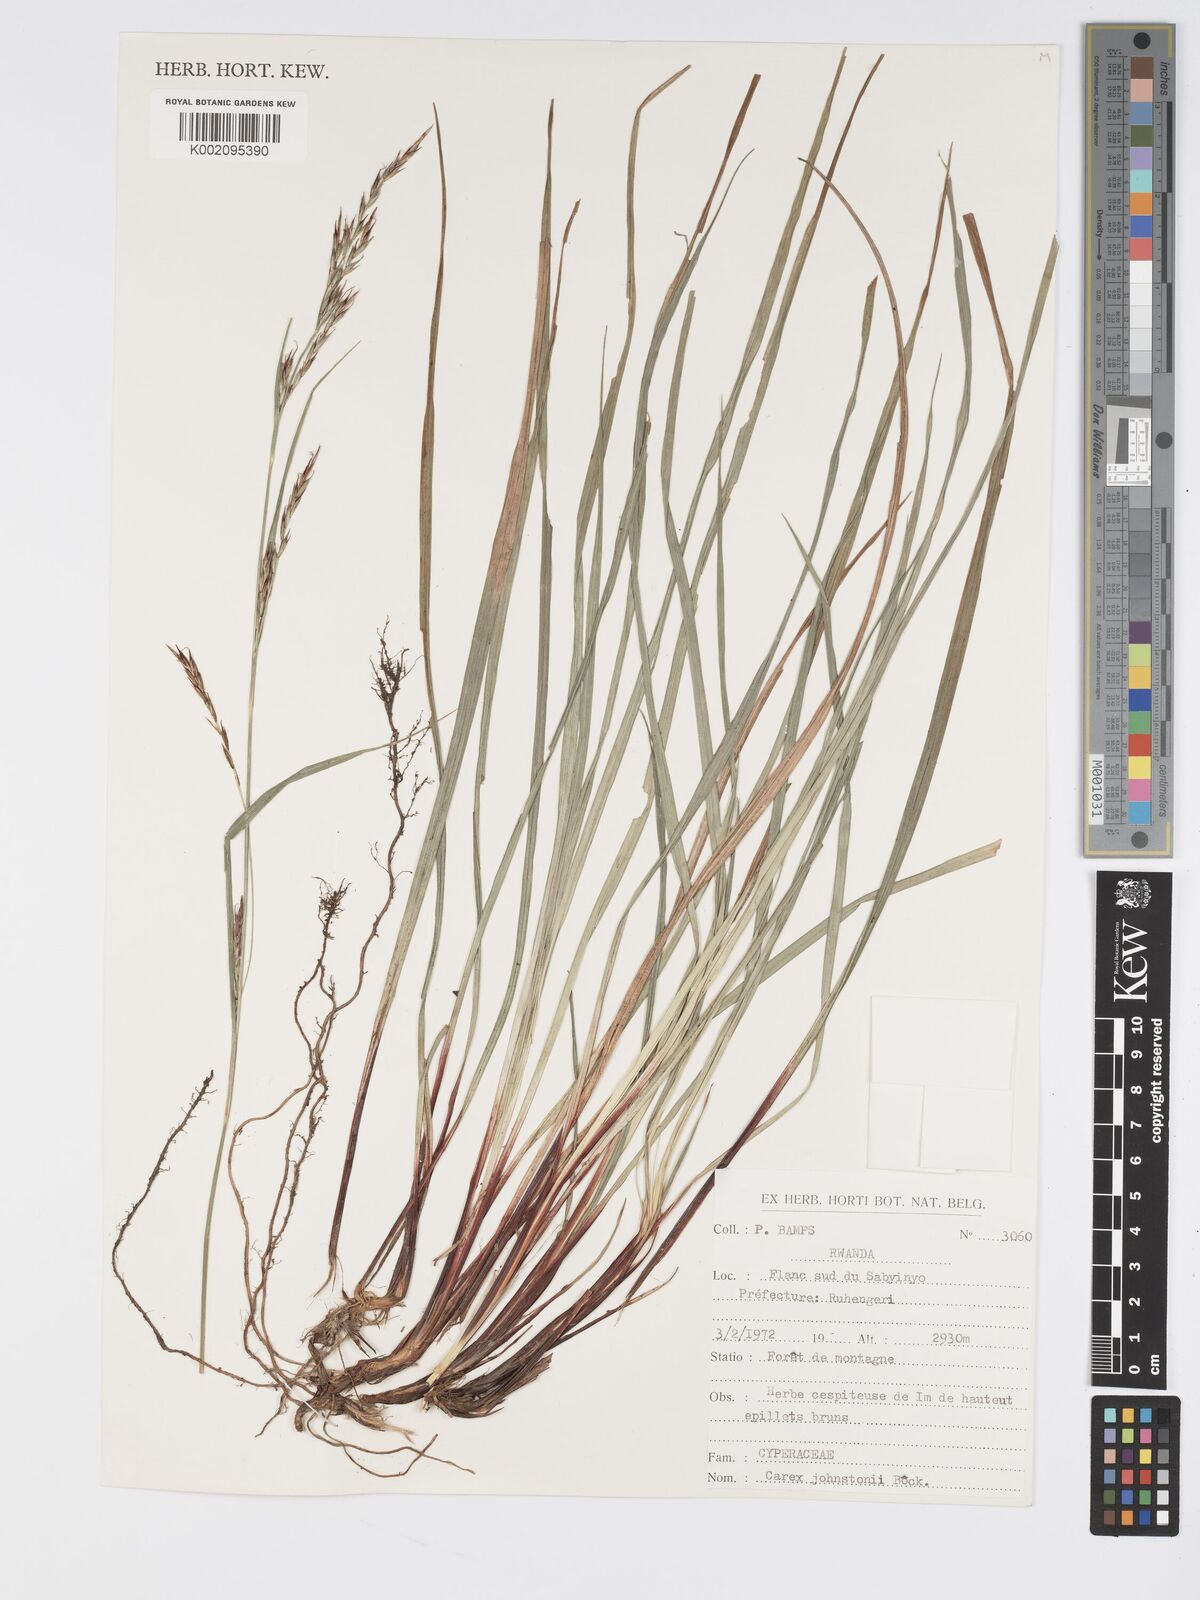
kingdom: Plantae
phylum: Tracheophyta
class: Liliopsida
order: Poales
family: Cyperaceae
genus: Carex
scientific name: Carex johnstonii
